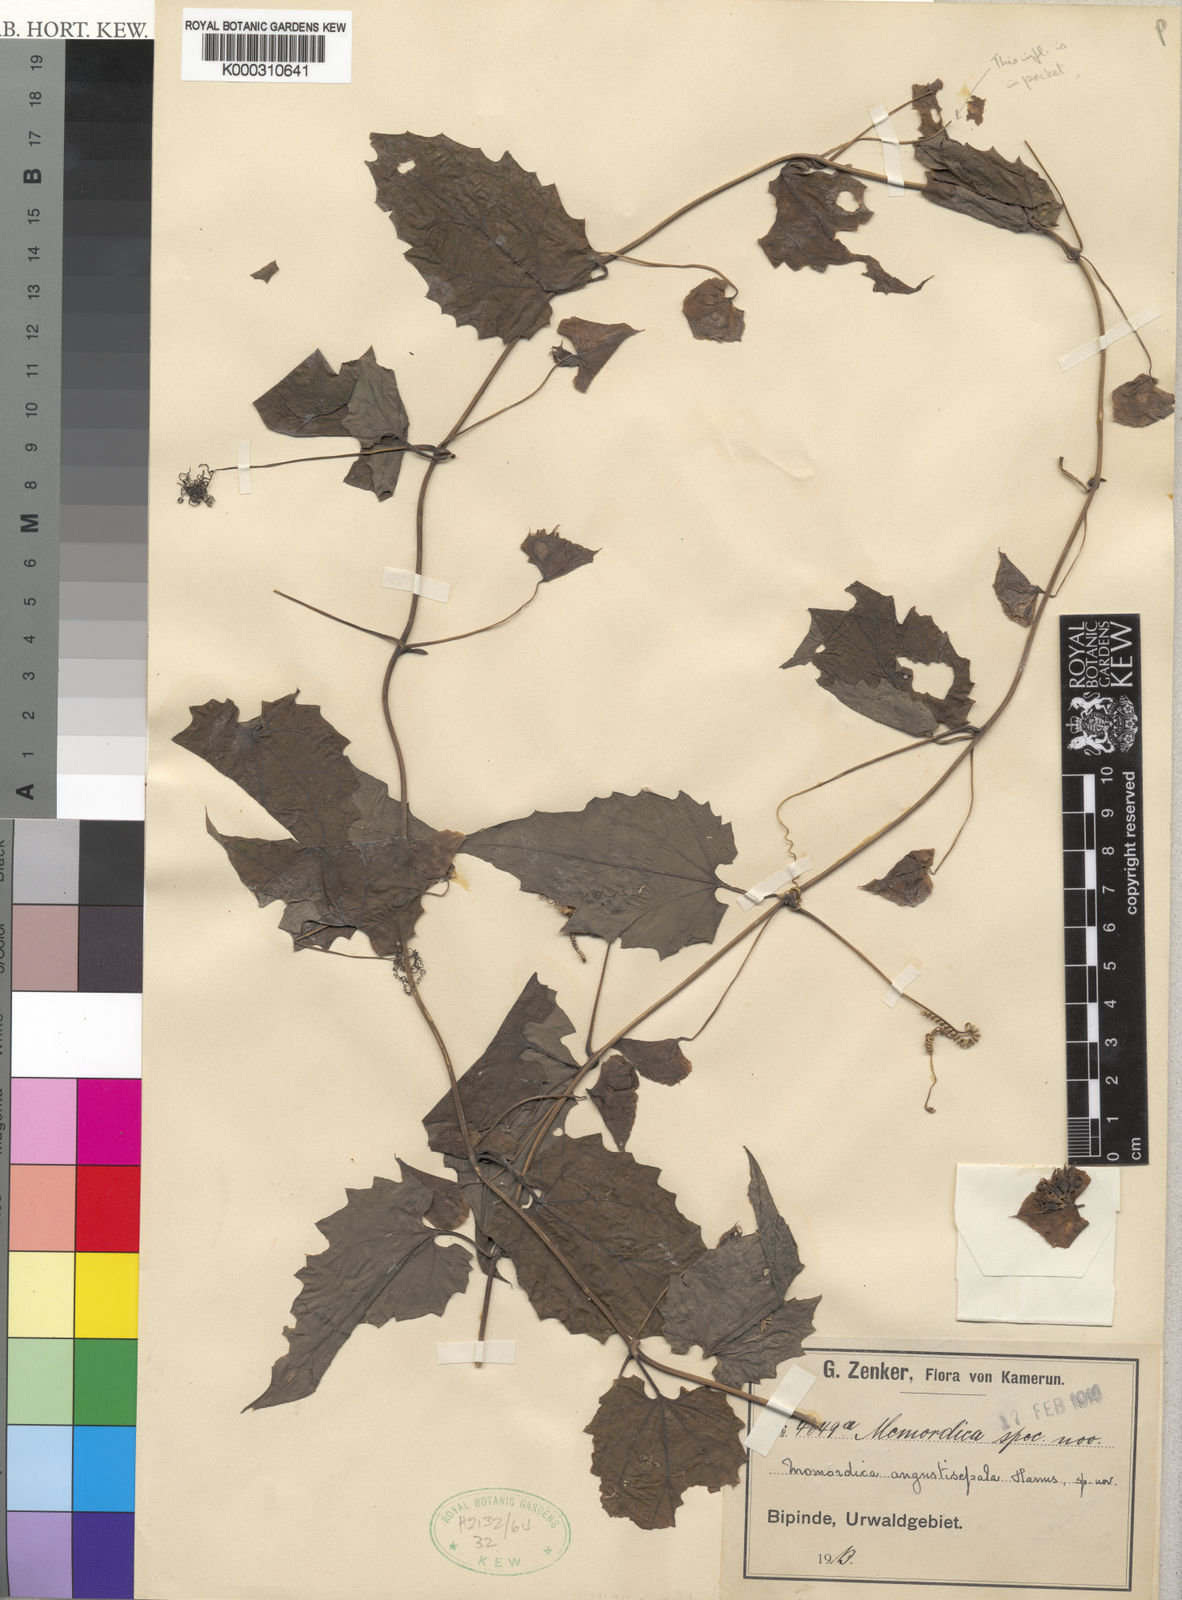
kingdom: Plantae
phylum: Tracheophyta
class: Magnoliopsida
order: Cucurbitales
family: Cucurbitaceae
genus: Momordica
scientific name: Momordica angustisepala
